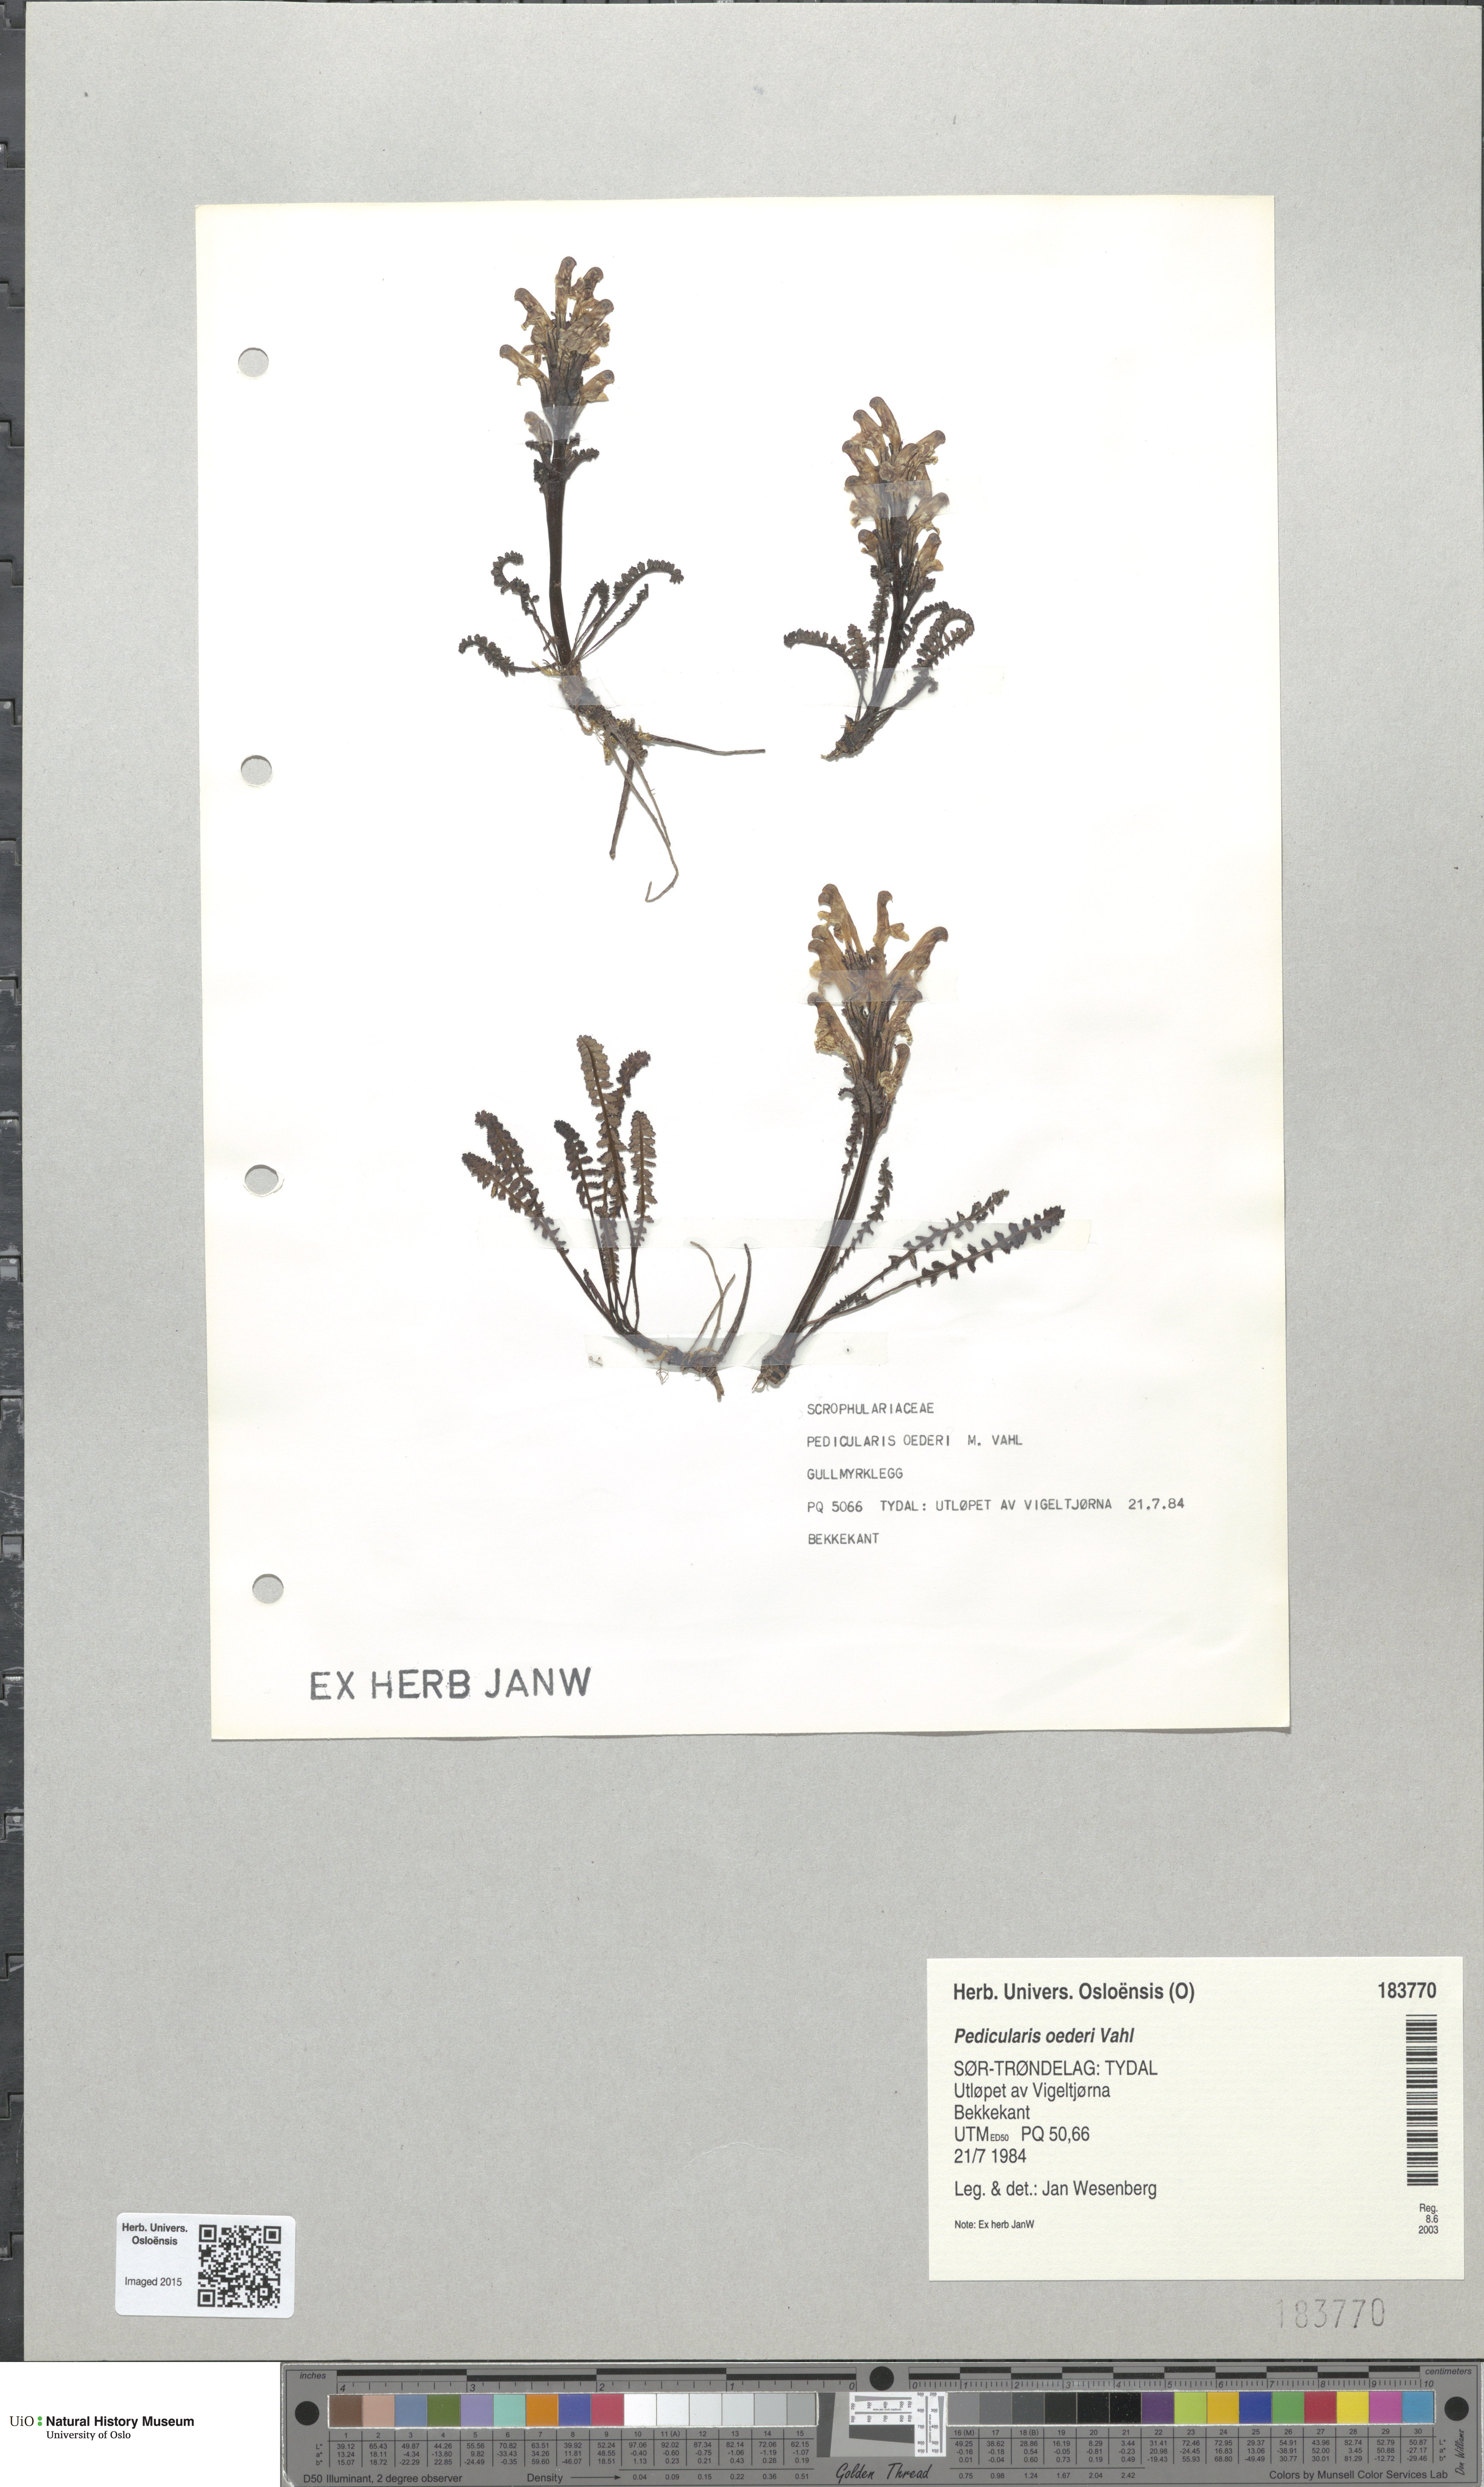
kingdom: Plantae
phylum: Tracheophyta
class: Magnoliopsida
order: Lamiales
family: Orobanchaceae
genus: Pedicularis
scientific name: Pedicularis oederi
